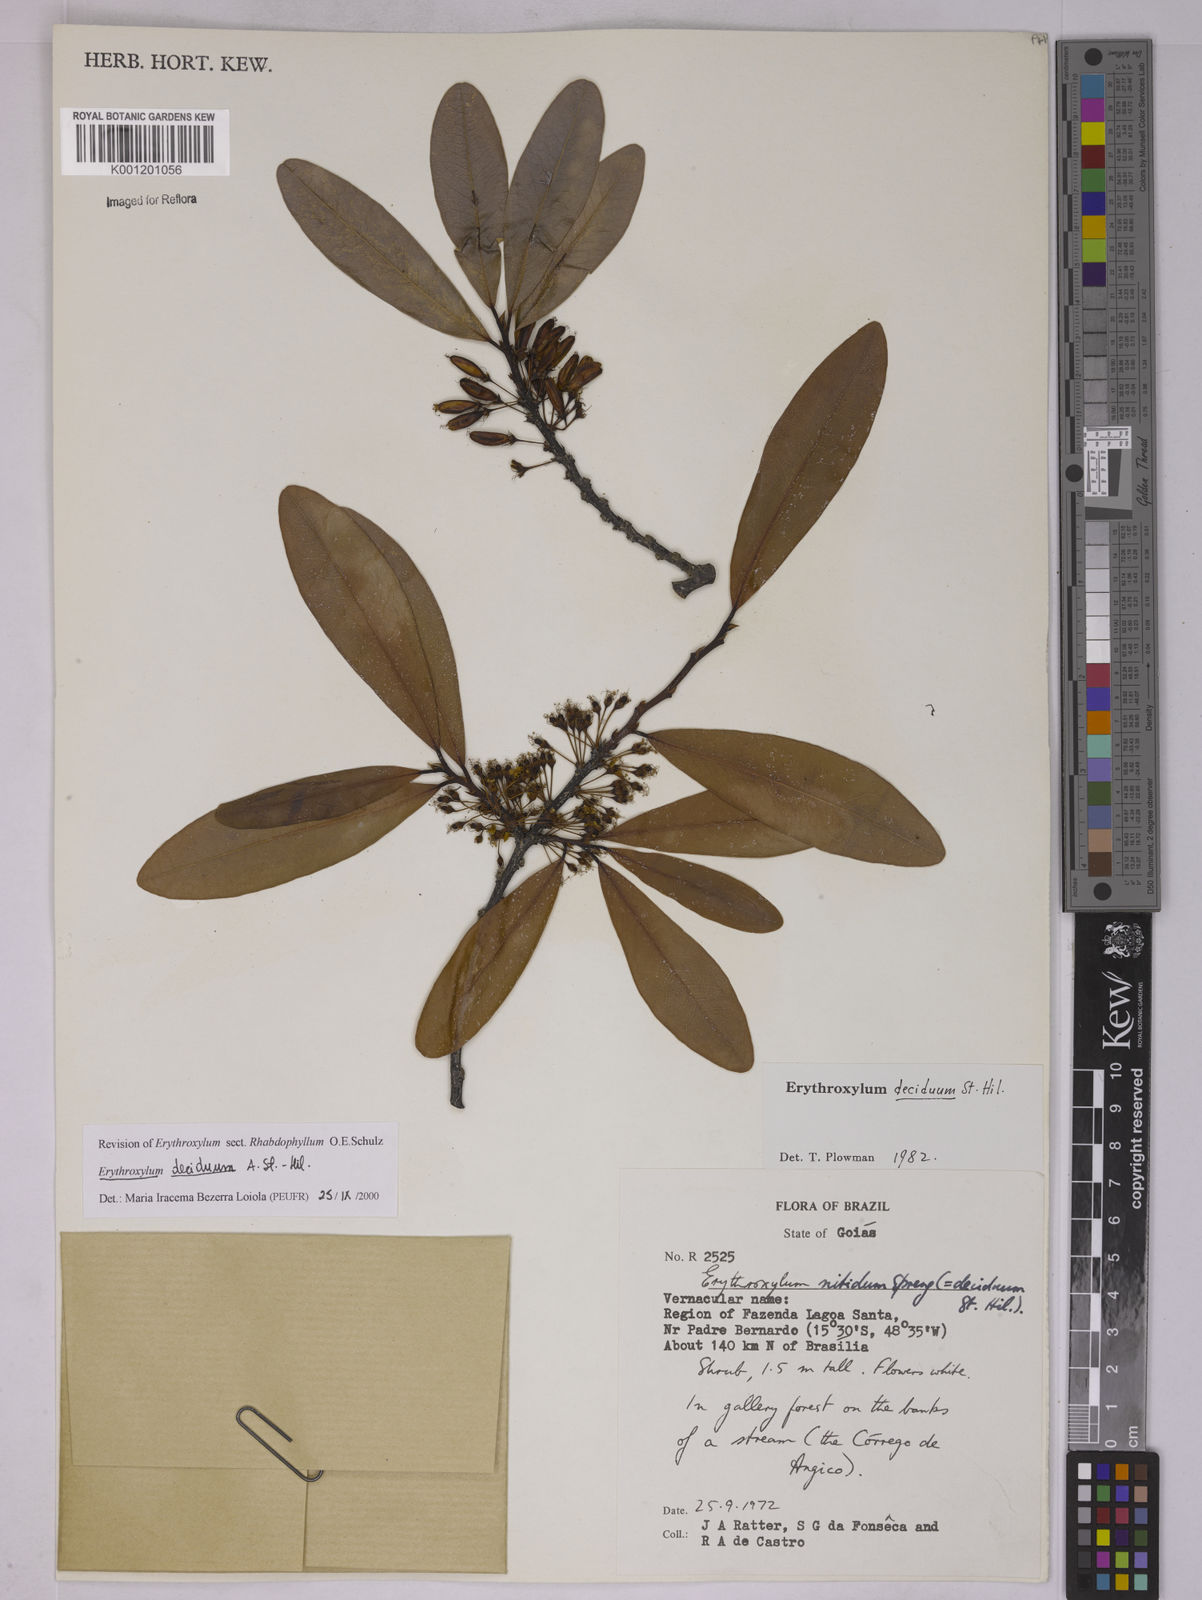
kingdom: Plantae
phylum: Tracheophyta
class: Magnoliopsida
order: Malpighiales
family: Erythroxylaceae
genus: Erythroxylum
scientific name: Erythroxylum deciduum
